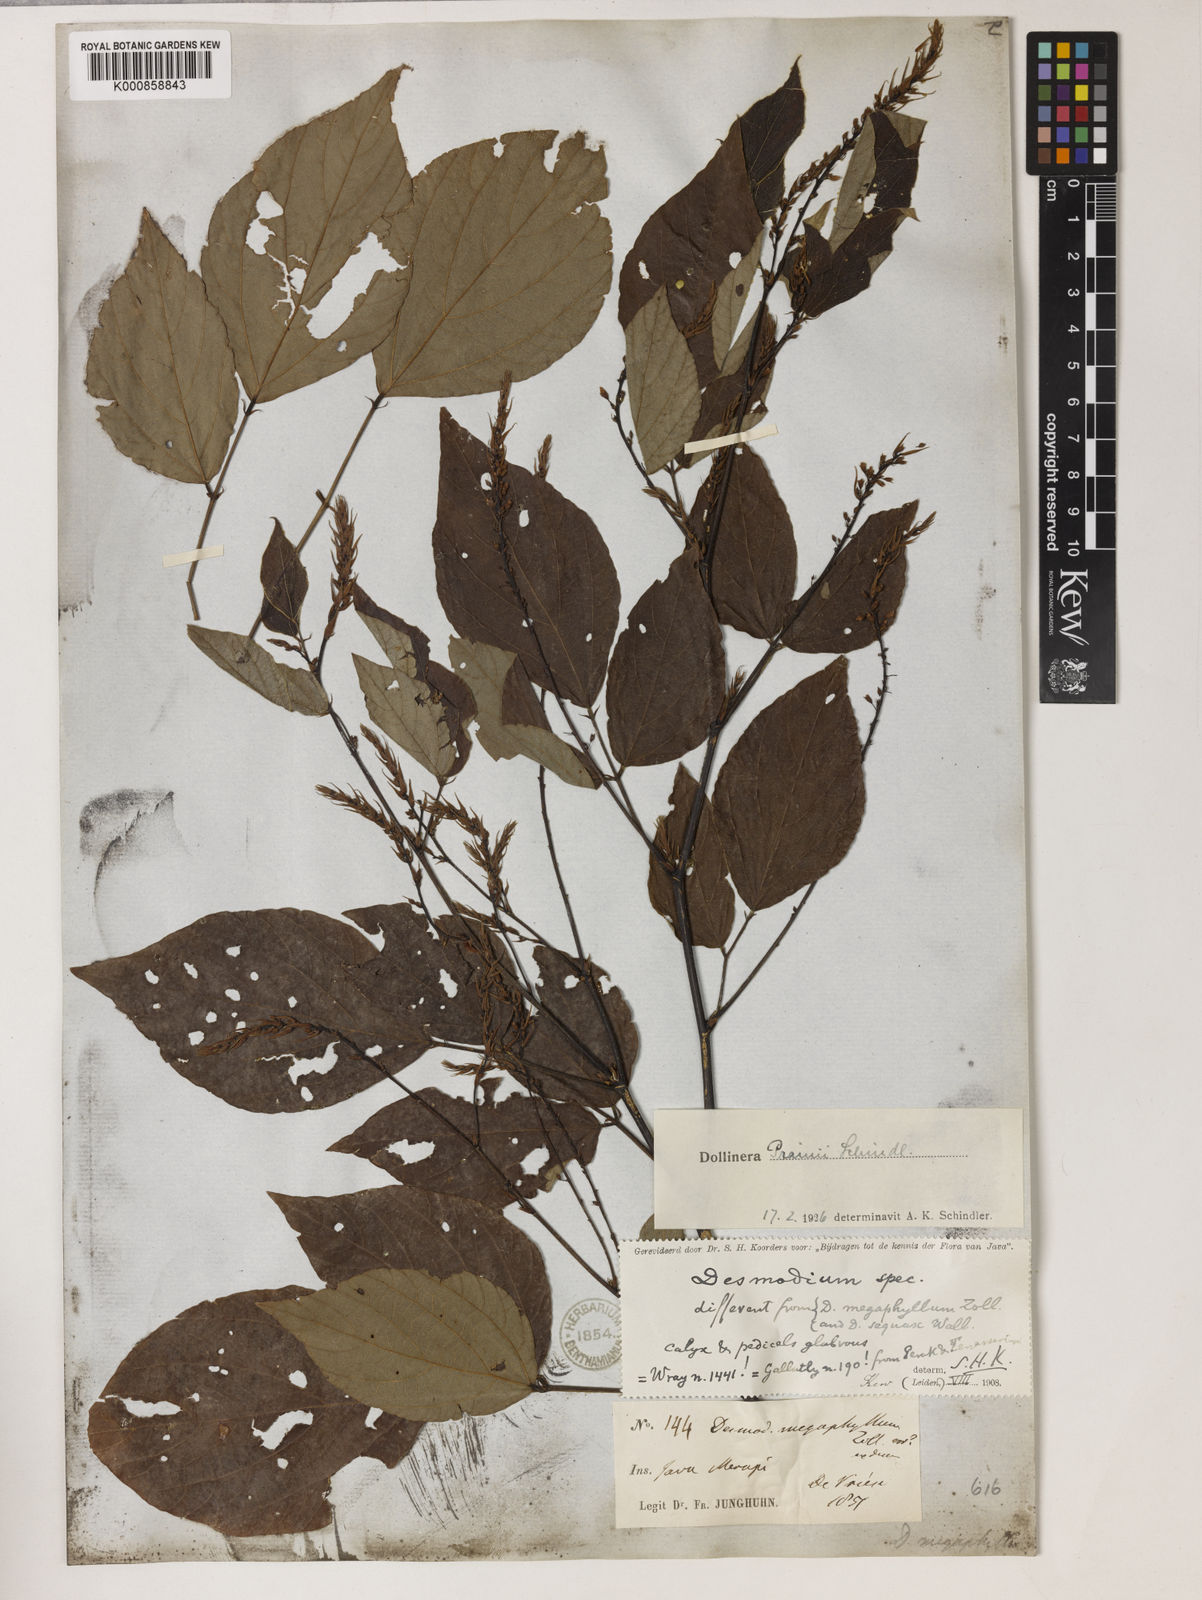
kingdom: Plantae
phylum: Tracheophyta
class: Magnoliopsida
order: Fabales
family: Fabaceae
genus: Puhuaea
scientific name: Puhuaea megaphylla
